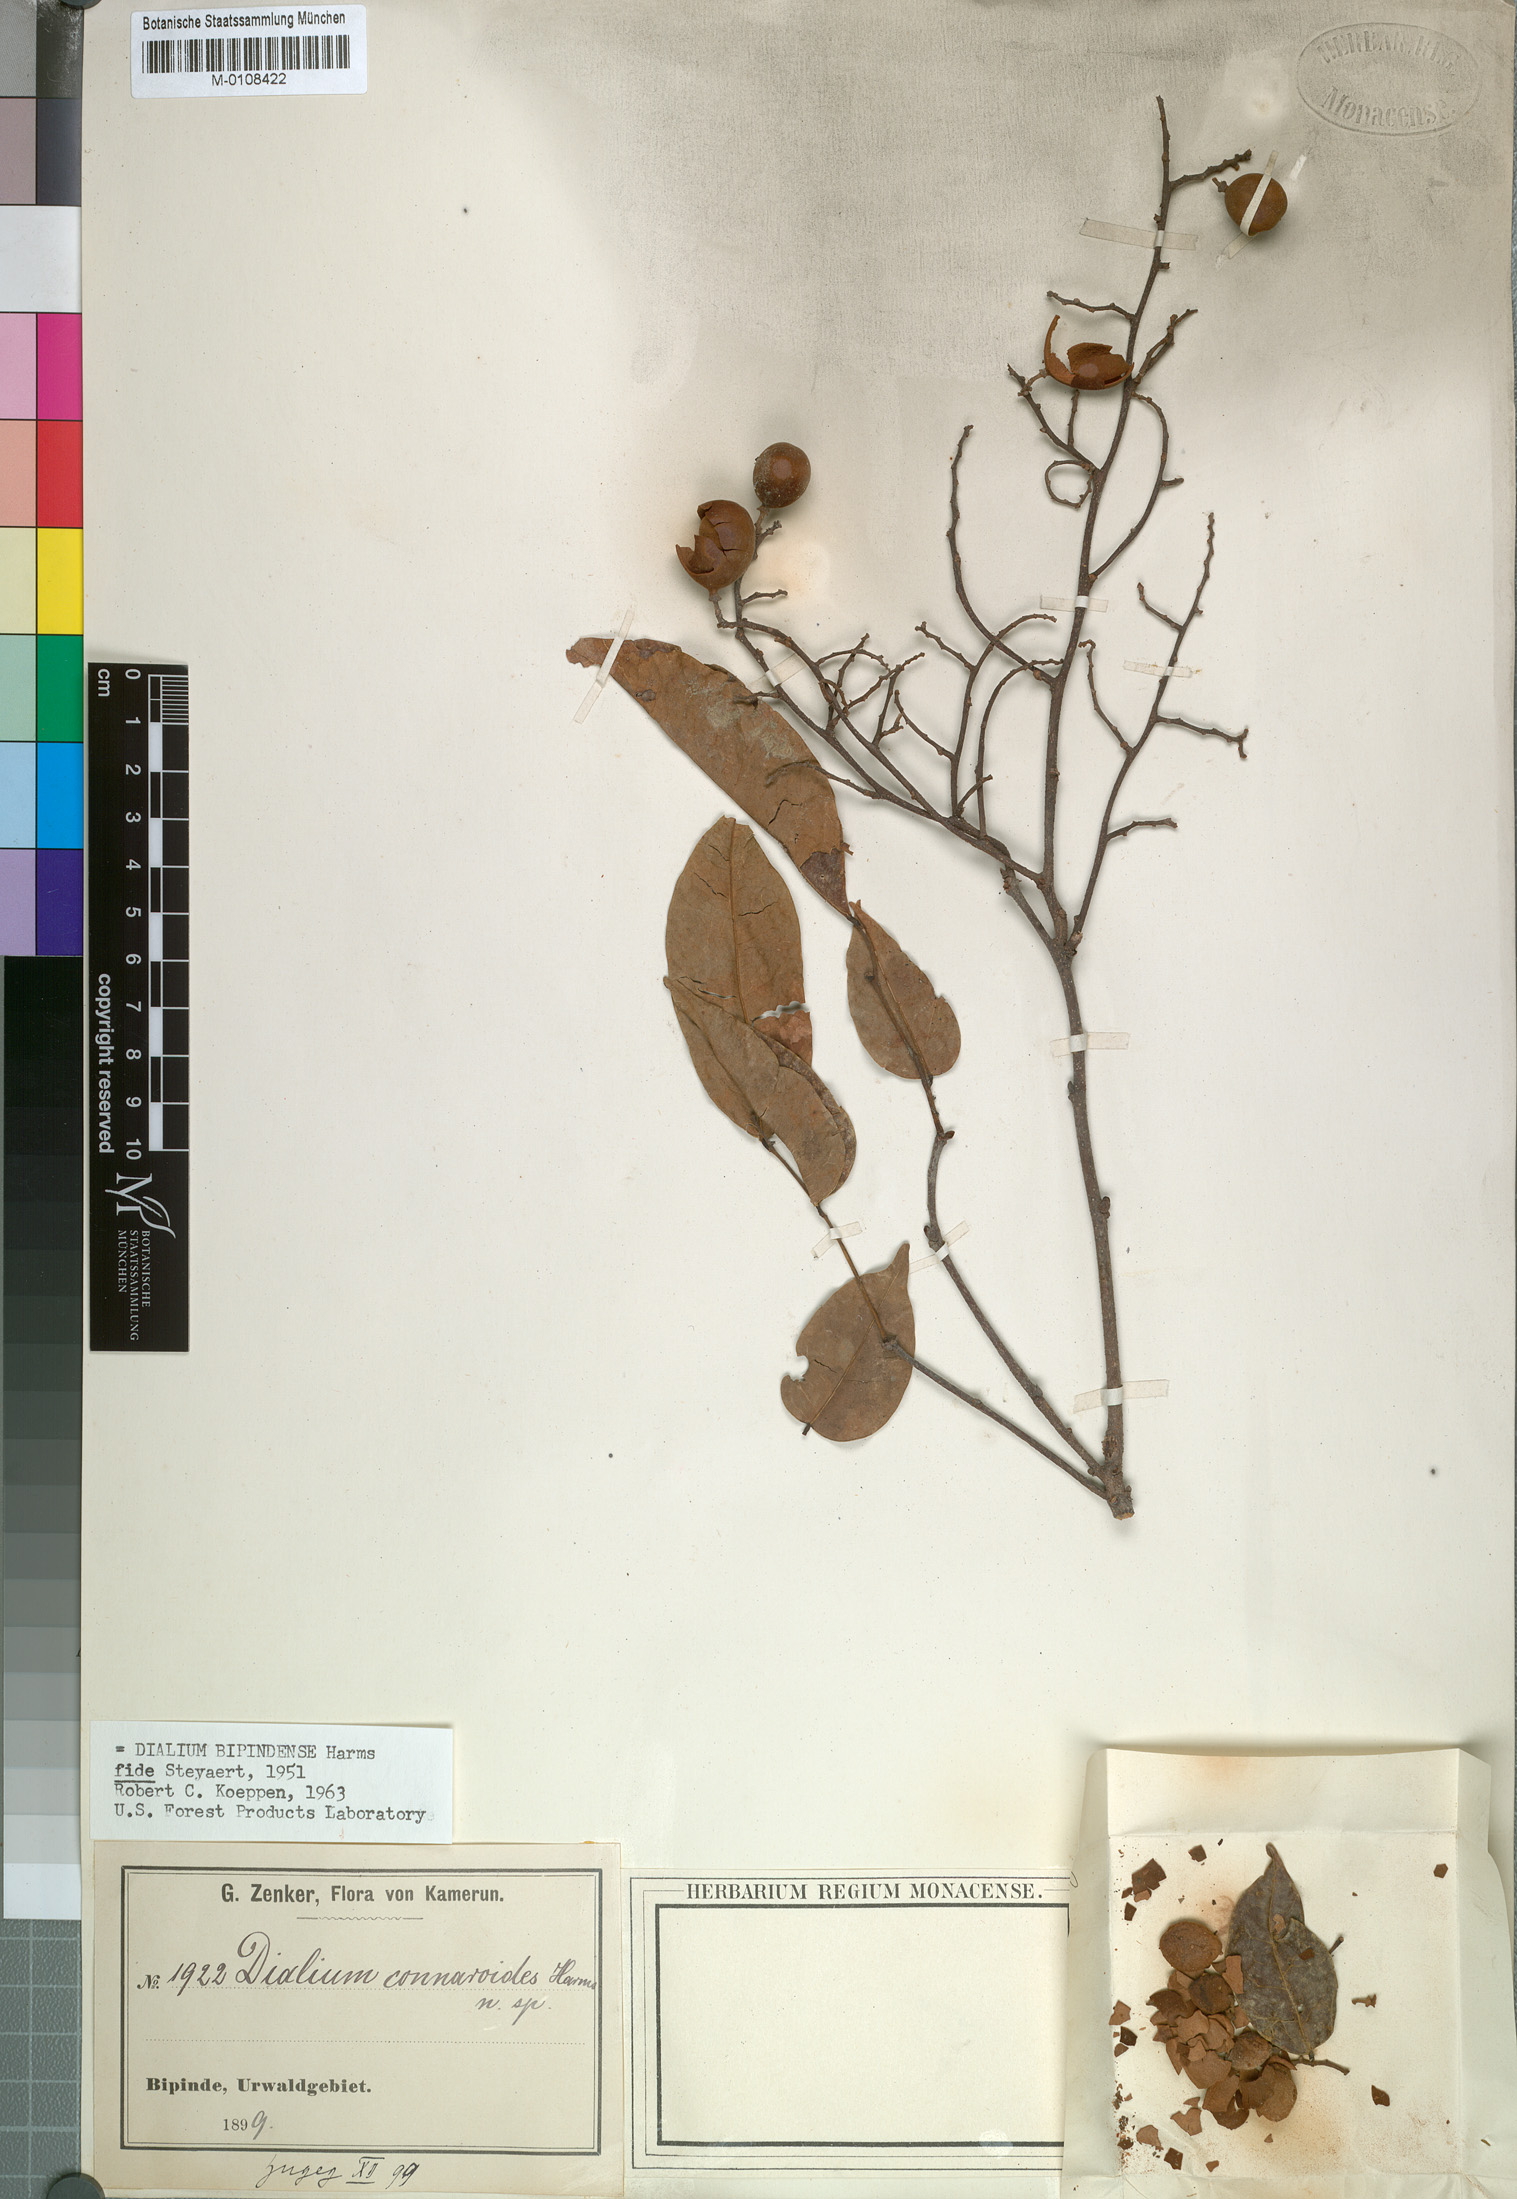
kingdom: Plantae
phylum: Tracheophyta
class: Magnoliopsida
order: Fabales
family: Fabaceae
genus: Dialium
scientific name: Dialium bipindense
